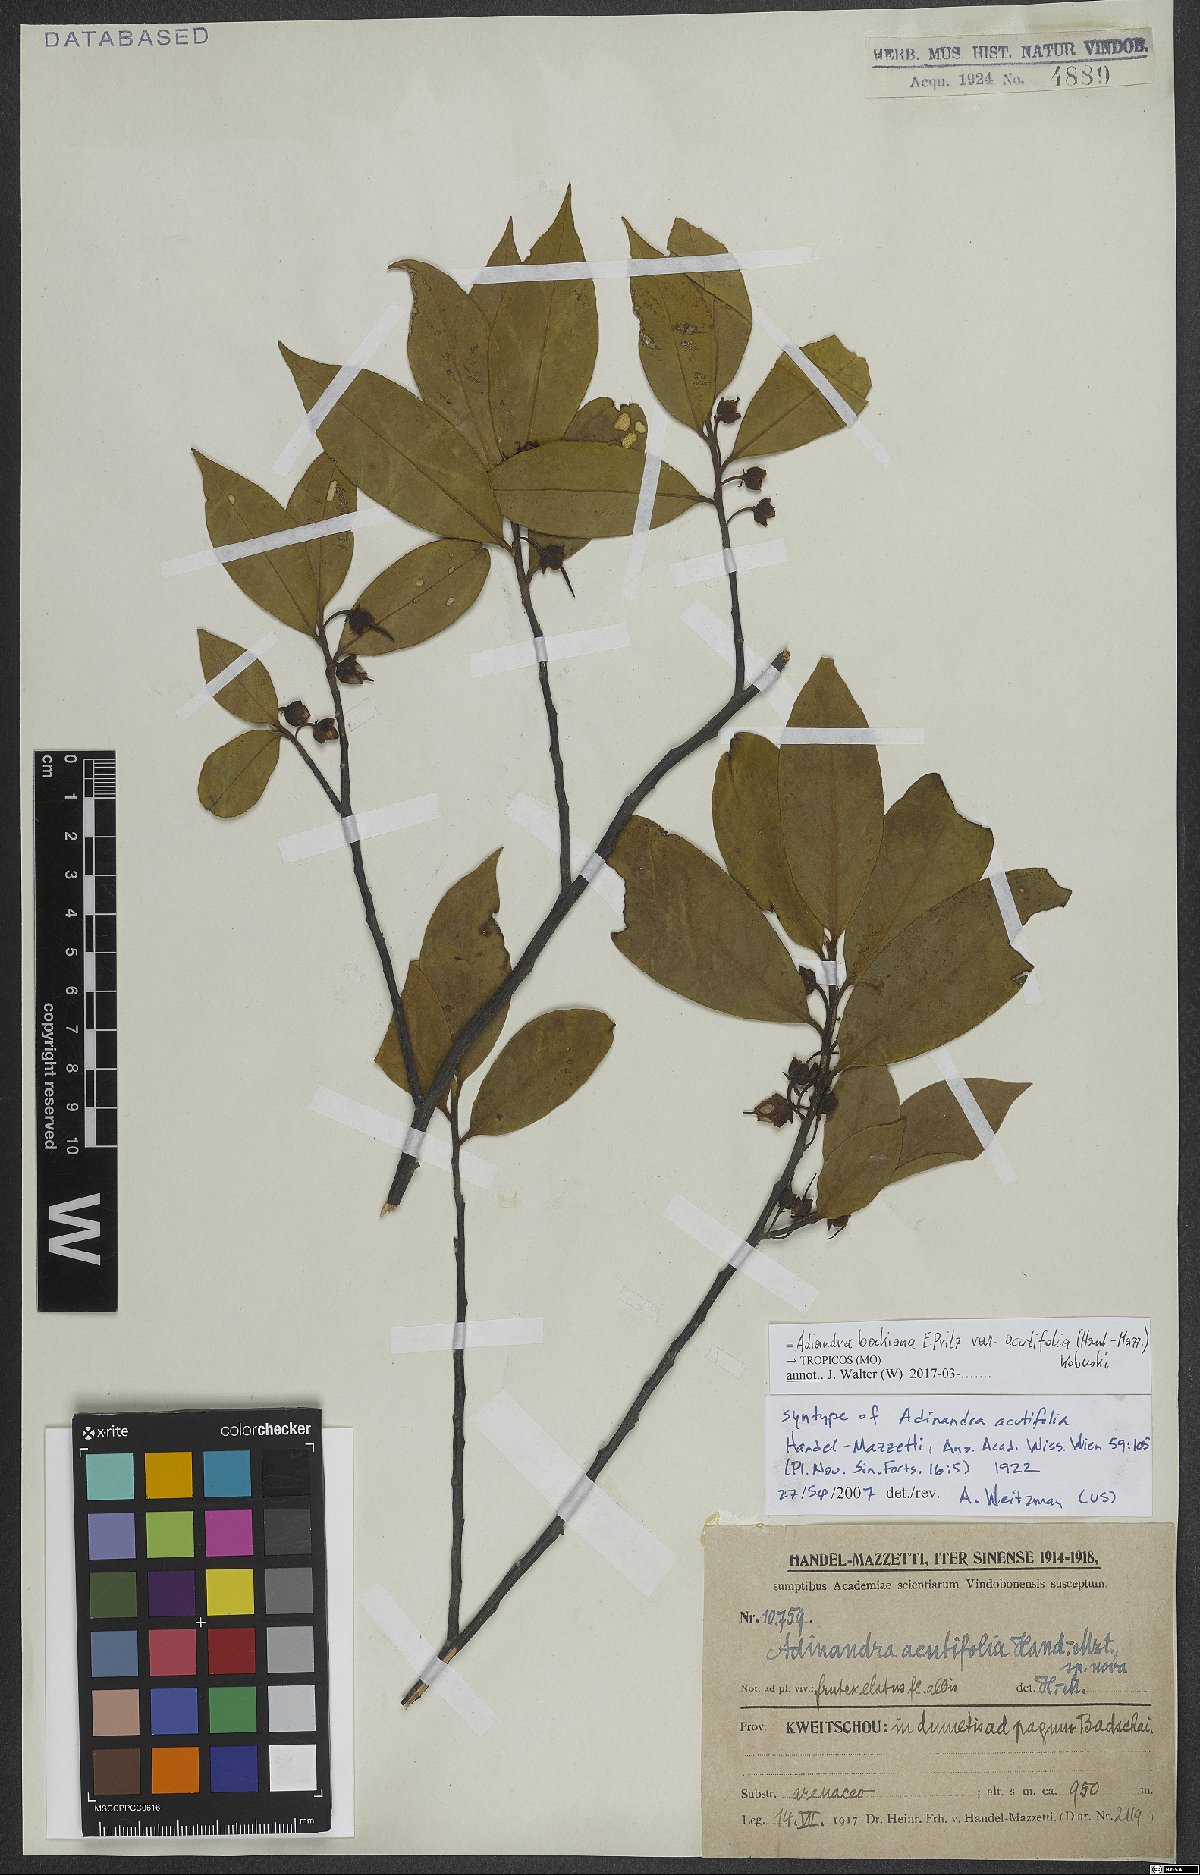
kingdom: Plantae
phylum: Tracheophyta
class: Magnoliopsida
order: Ericales
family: Pentaphylacaceae
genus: Adinandra
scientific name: Adinandra bockiana
